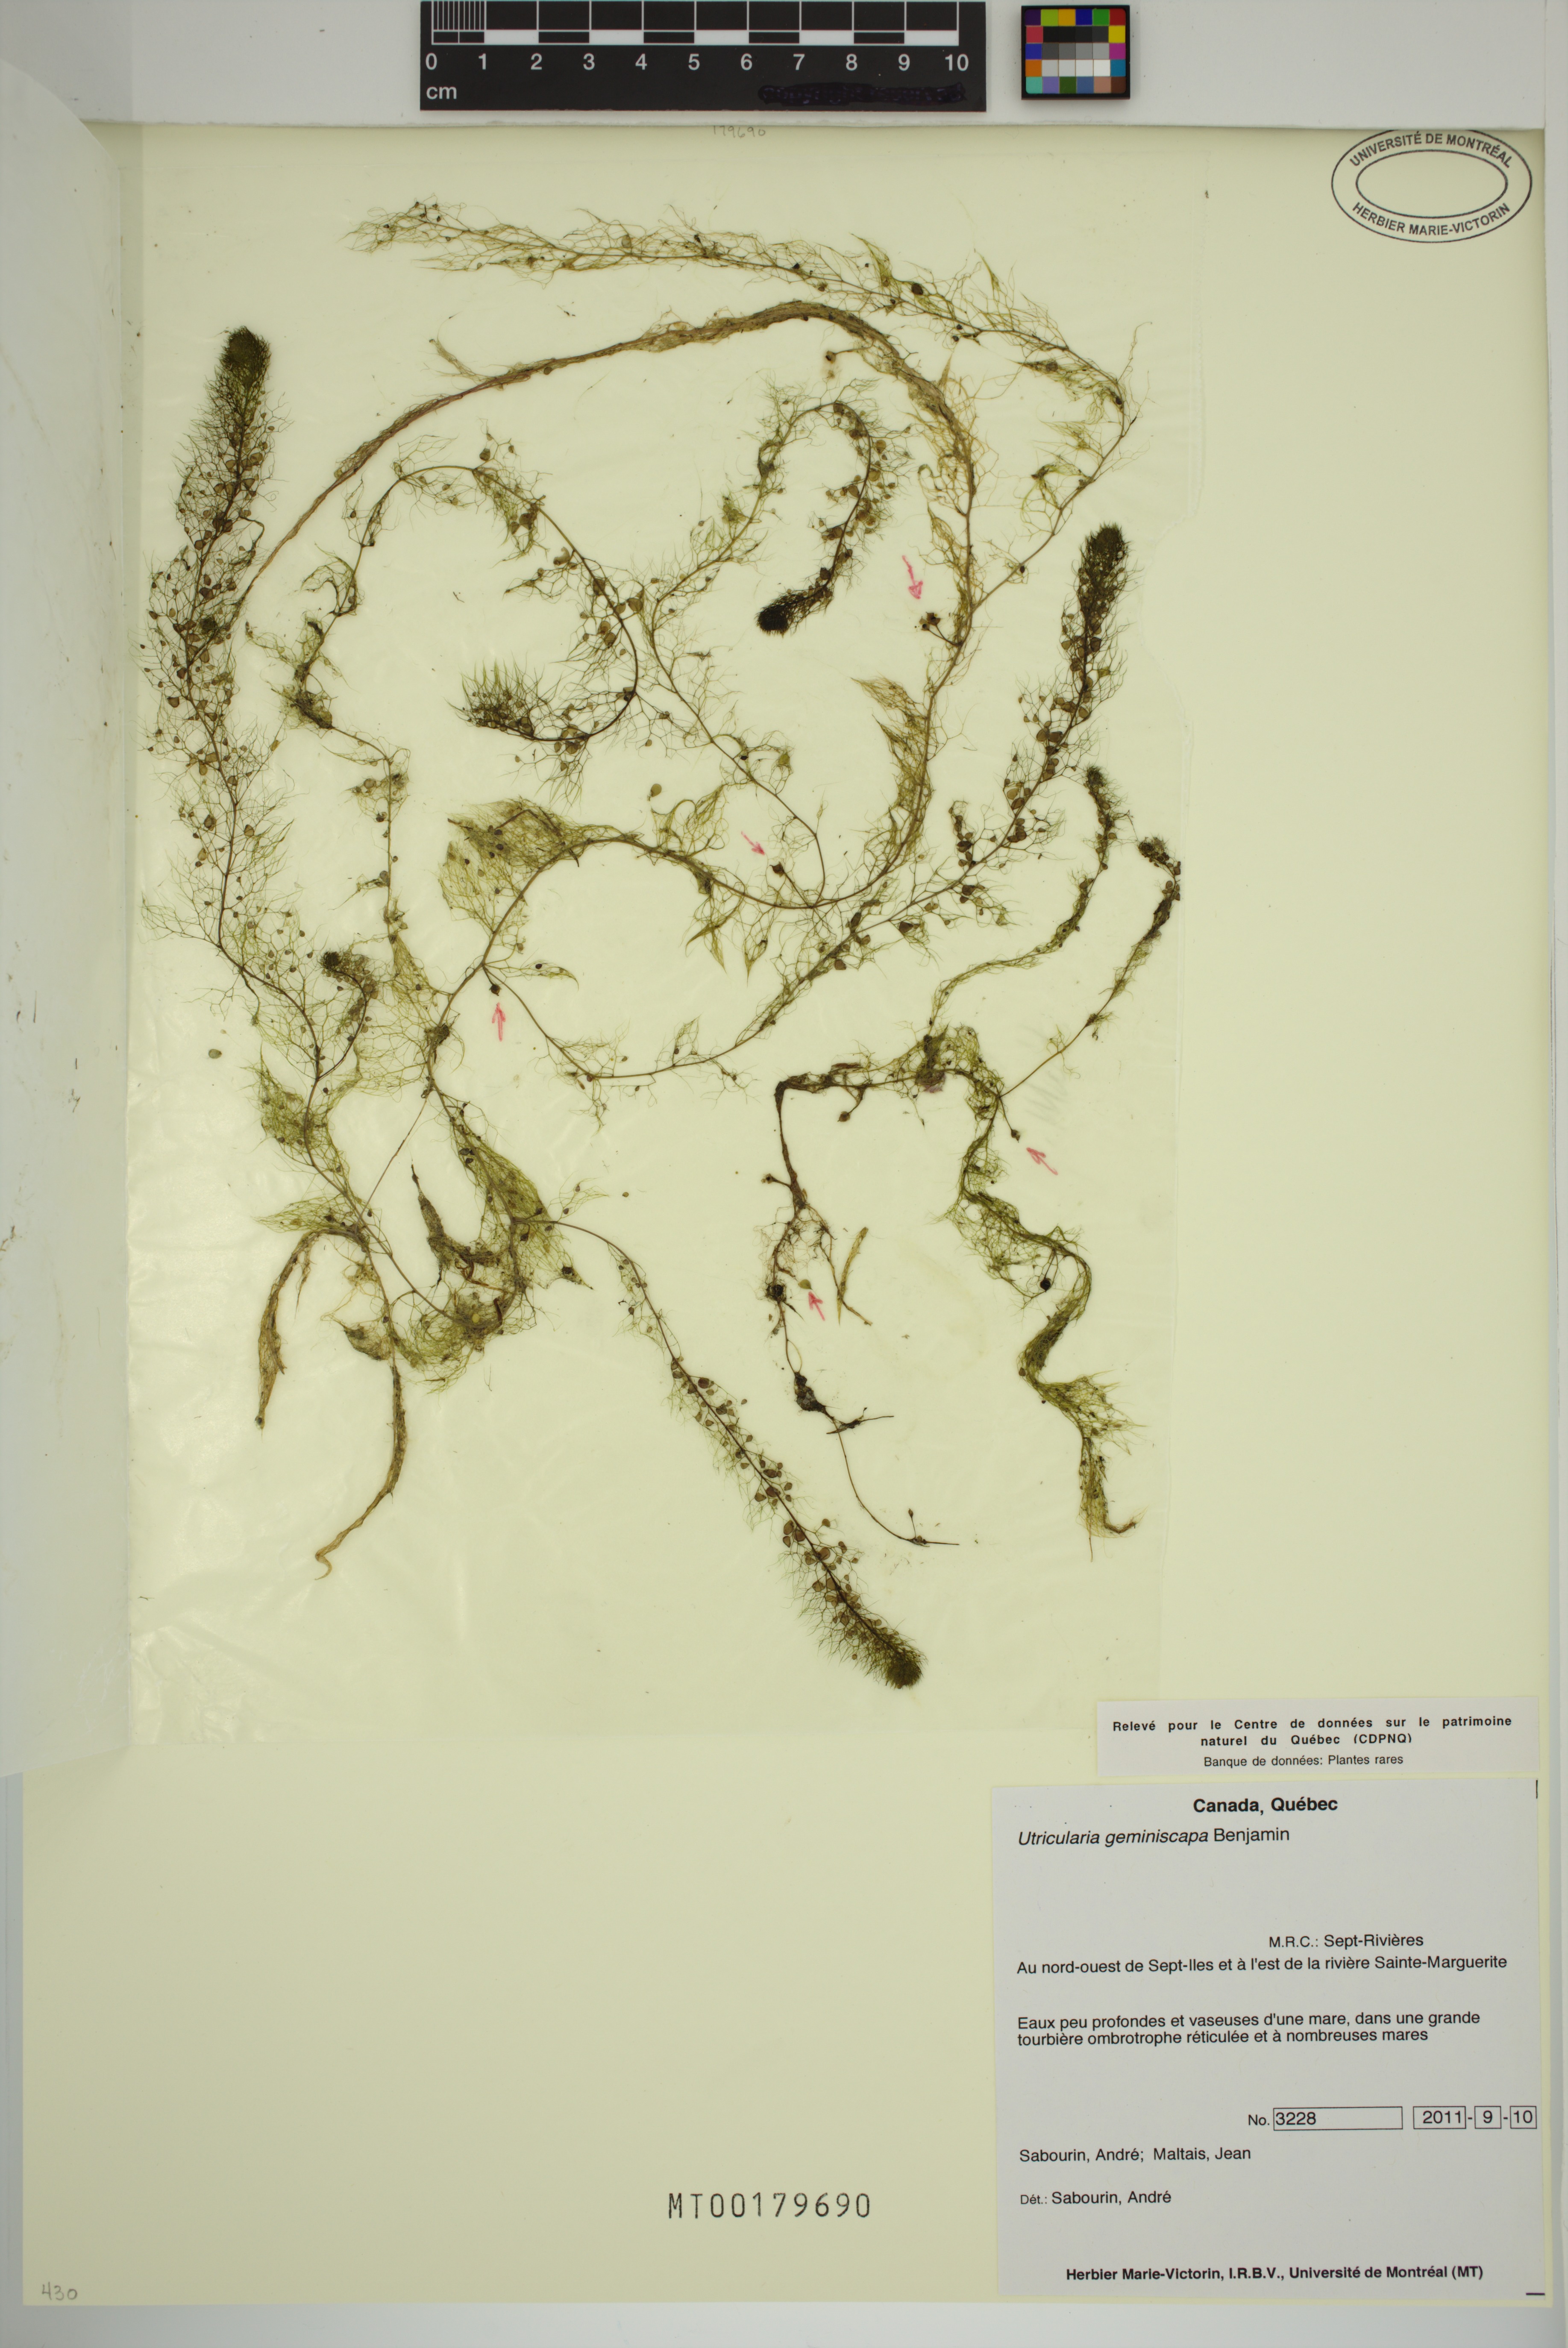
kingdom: Plantae
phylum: Tracheophyta
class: Magnoliopsida
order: Lamiales
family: Lentibulariaceae
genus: Utricularia
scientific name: Utricularia geminiscapa
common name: Hidden-fruit bladderwort
